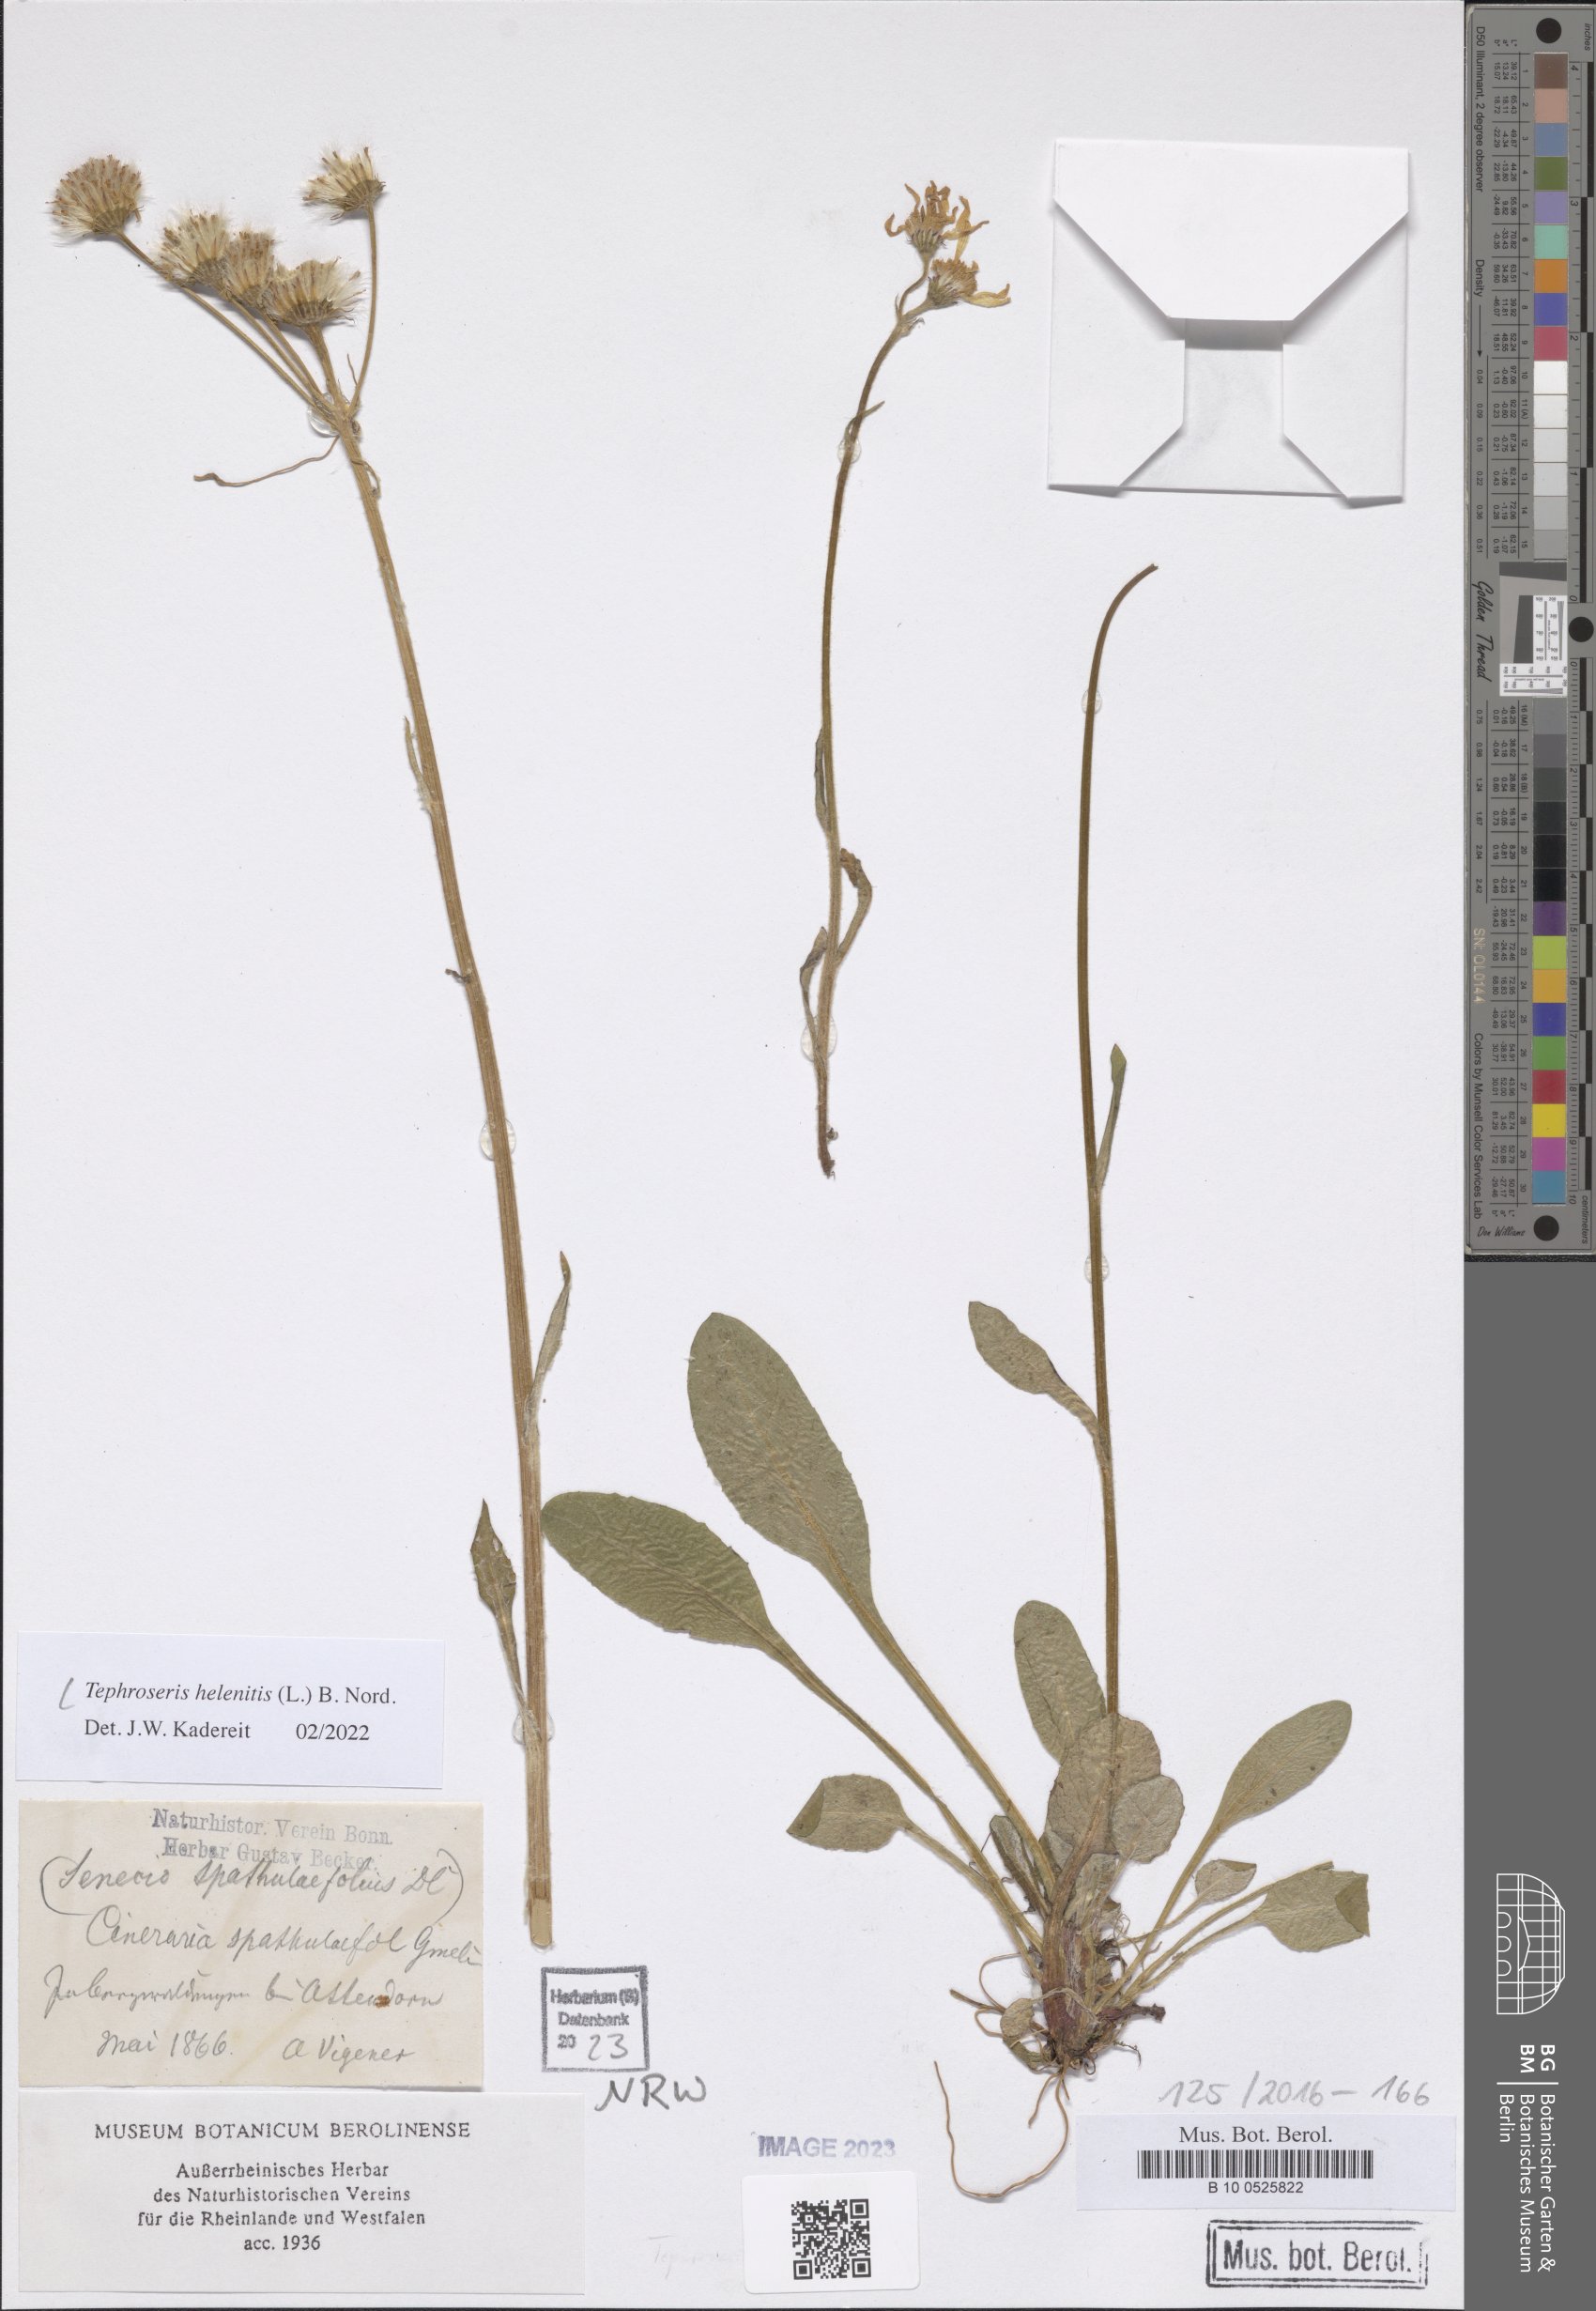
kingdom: Plantae
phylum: Tracheophyta
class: Magnoliopsida
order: Asterales
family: Asteraceae
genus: Tephroseris
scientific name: Tephroseris helenitis
